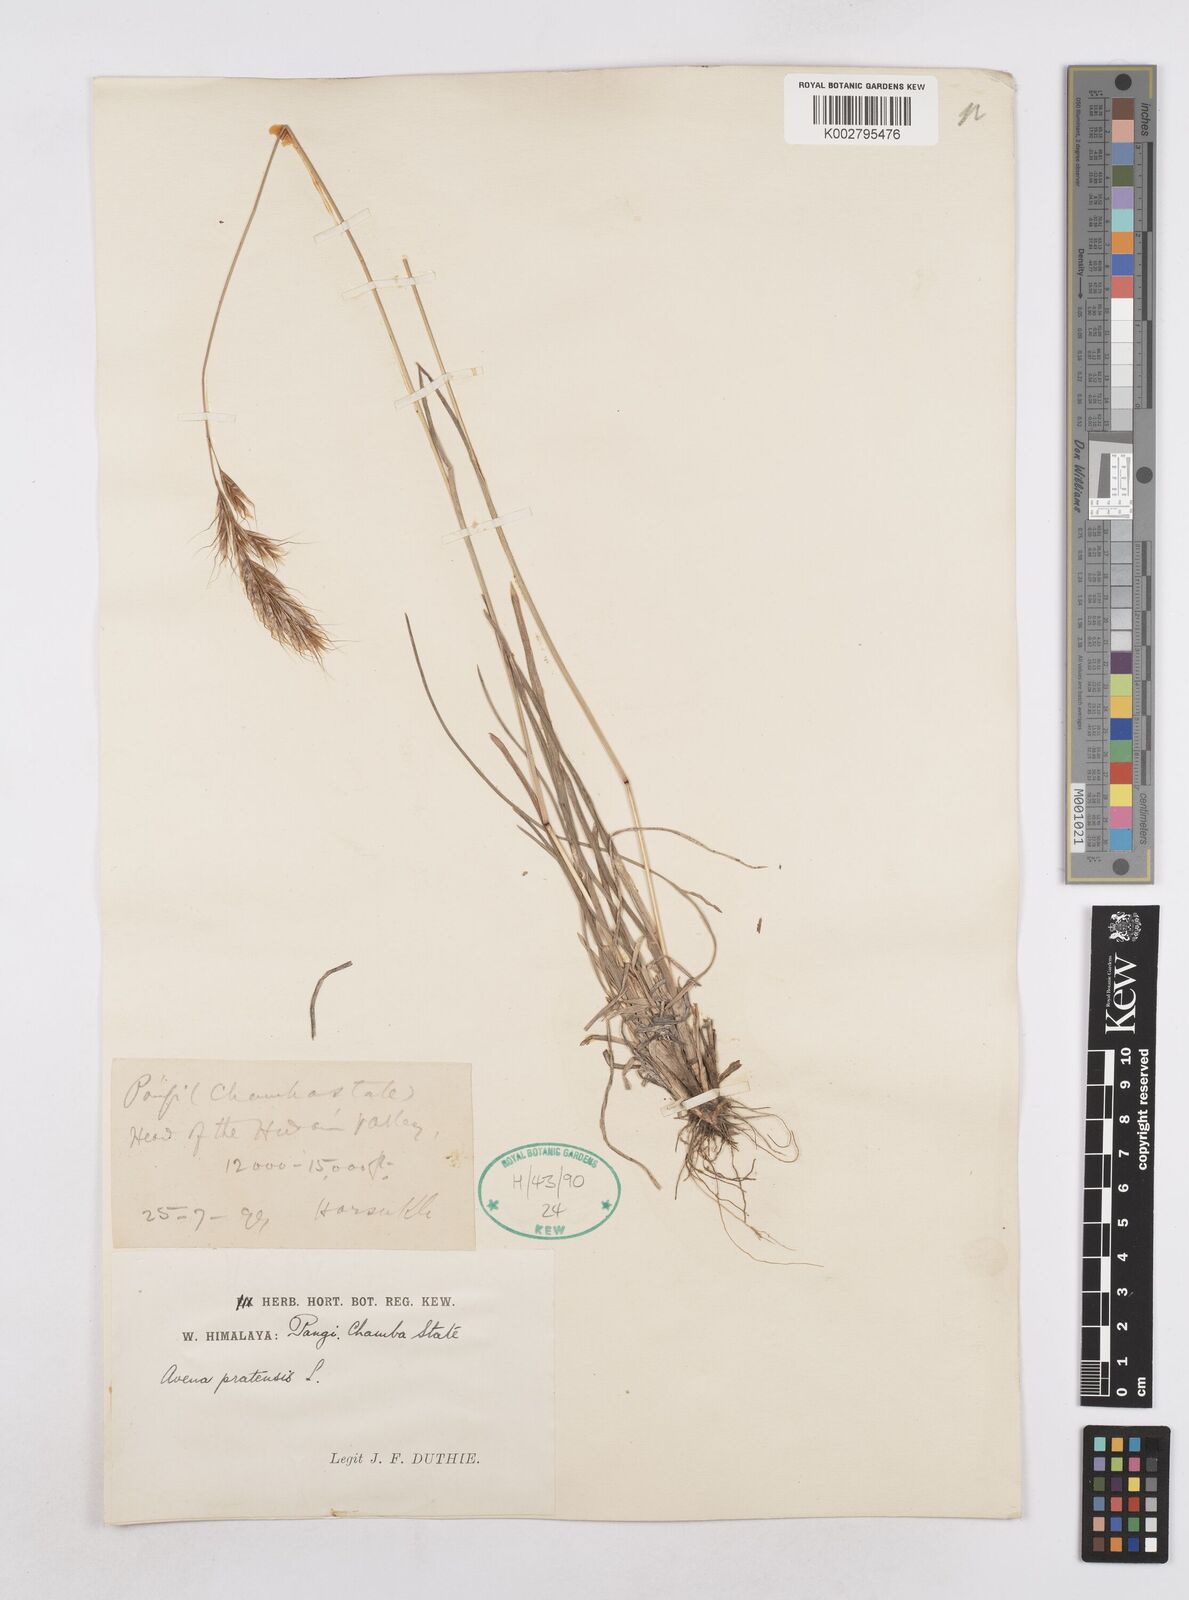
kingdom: Plantae
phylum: Tracheophyta
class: Liliopsida
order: Poales
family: Poaceae
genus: Helictochloa
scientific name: Helictochloa pratensis
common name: Meadow oat grass
